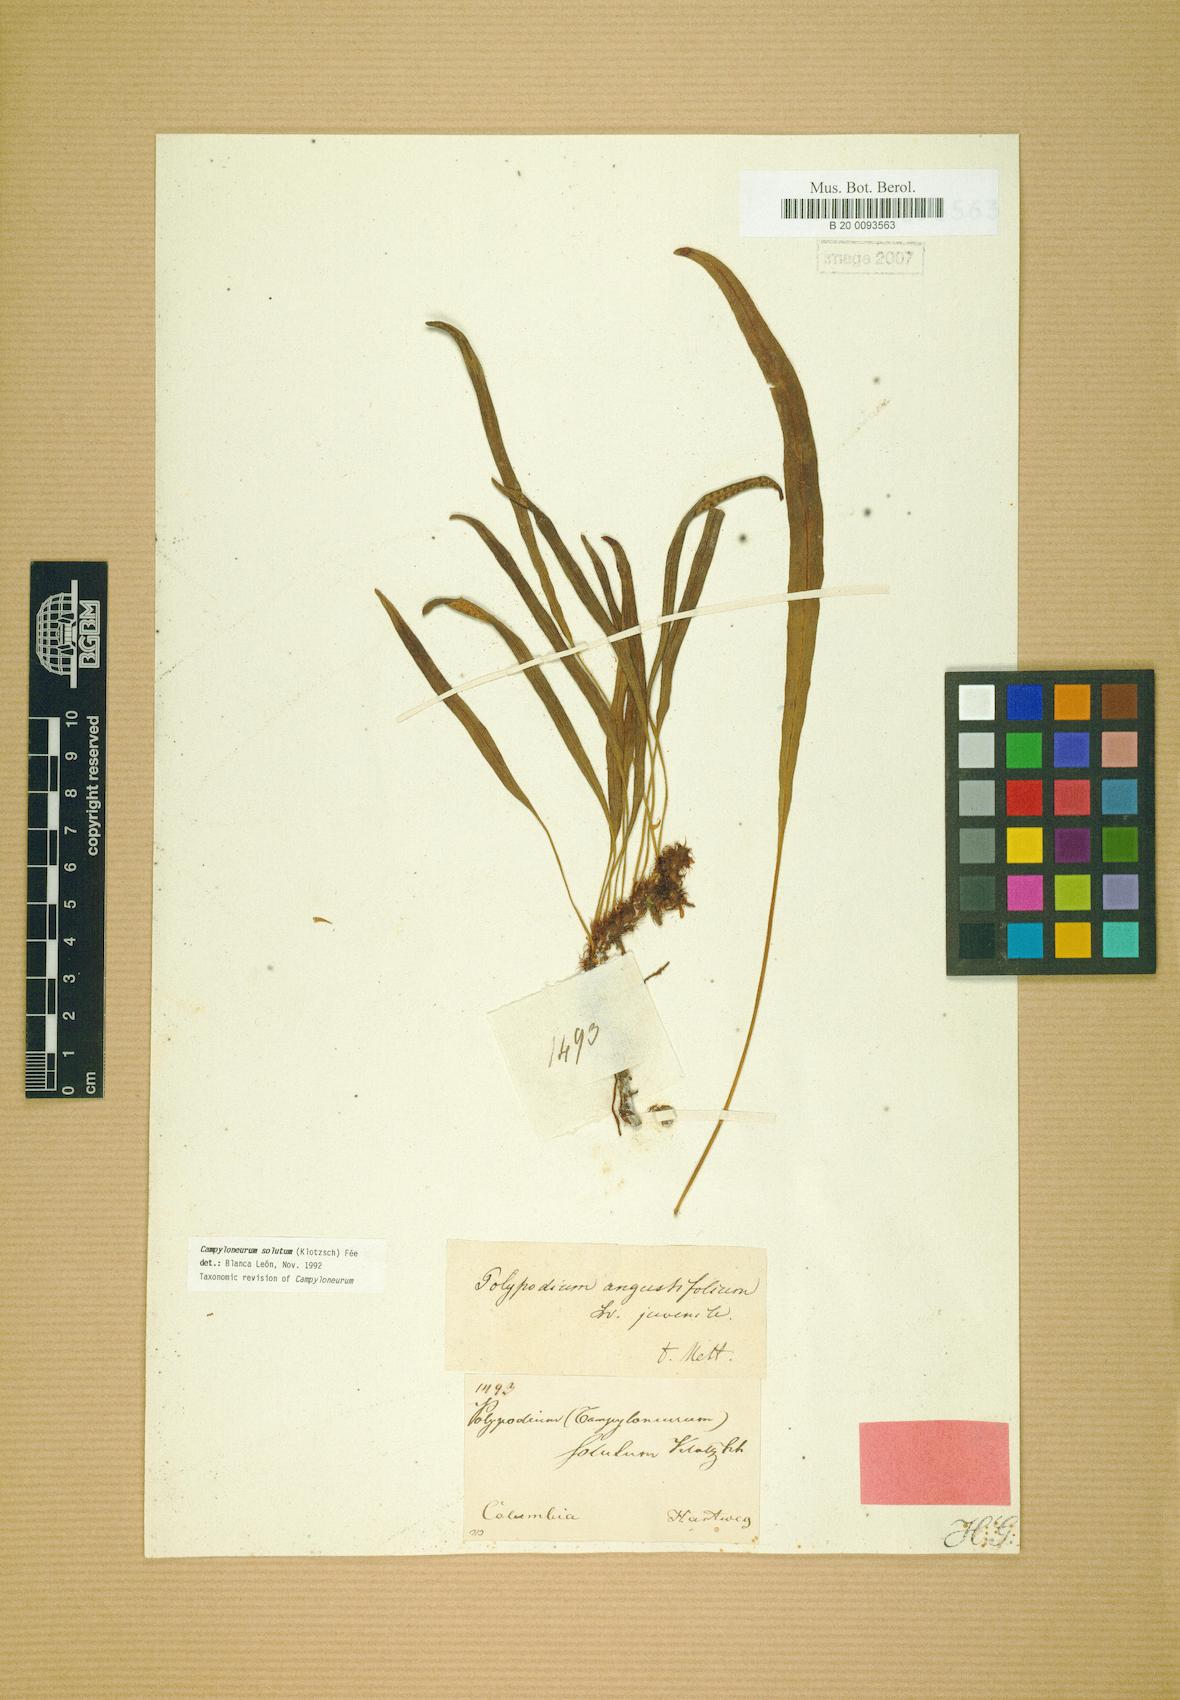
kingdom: Plantae
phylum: Tracheophyta
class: Polypodiopsida
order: Polypodiales
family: Polypodiaceae
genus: Campyloneurum
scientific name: Campyloneurum solutum
